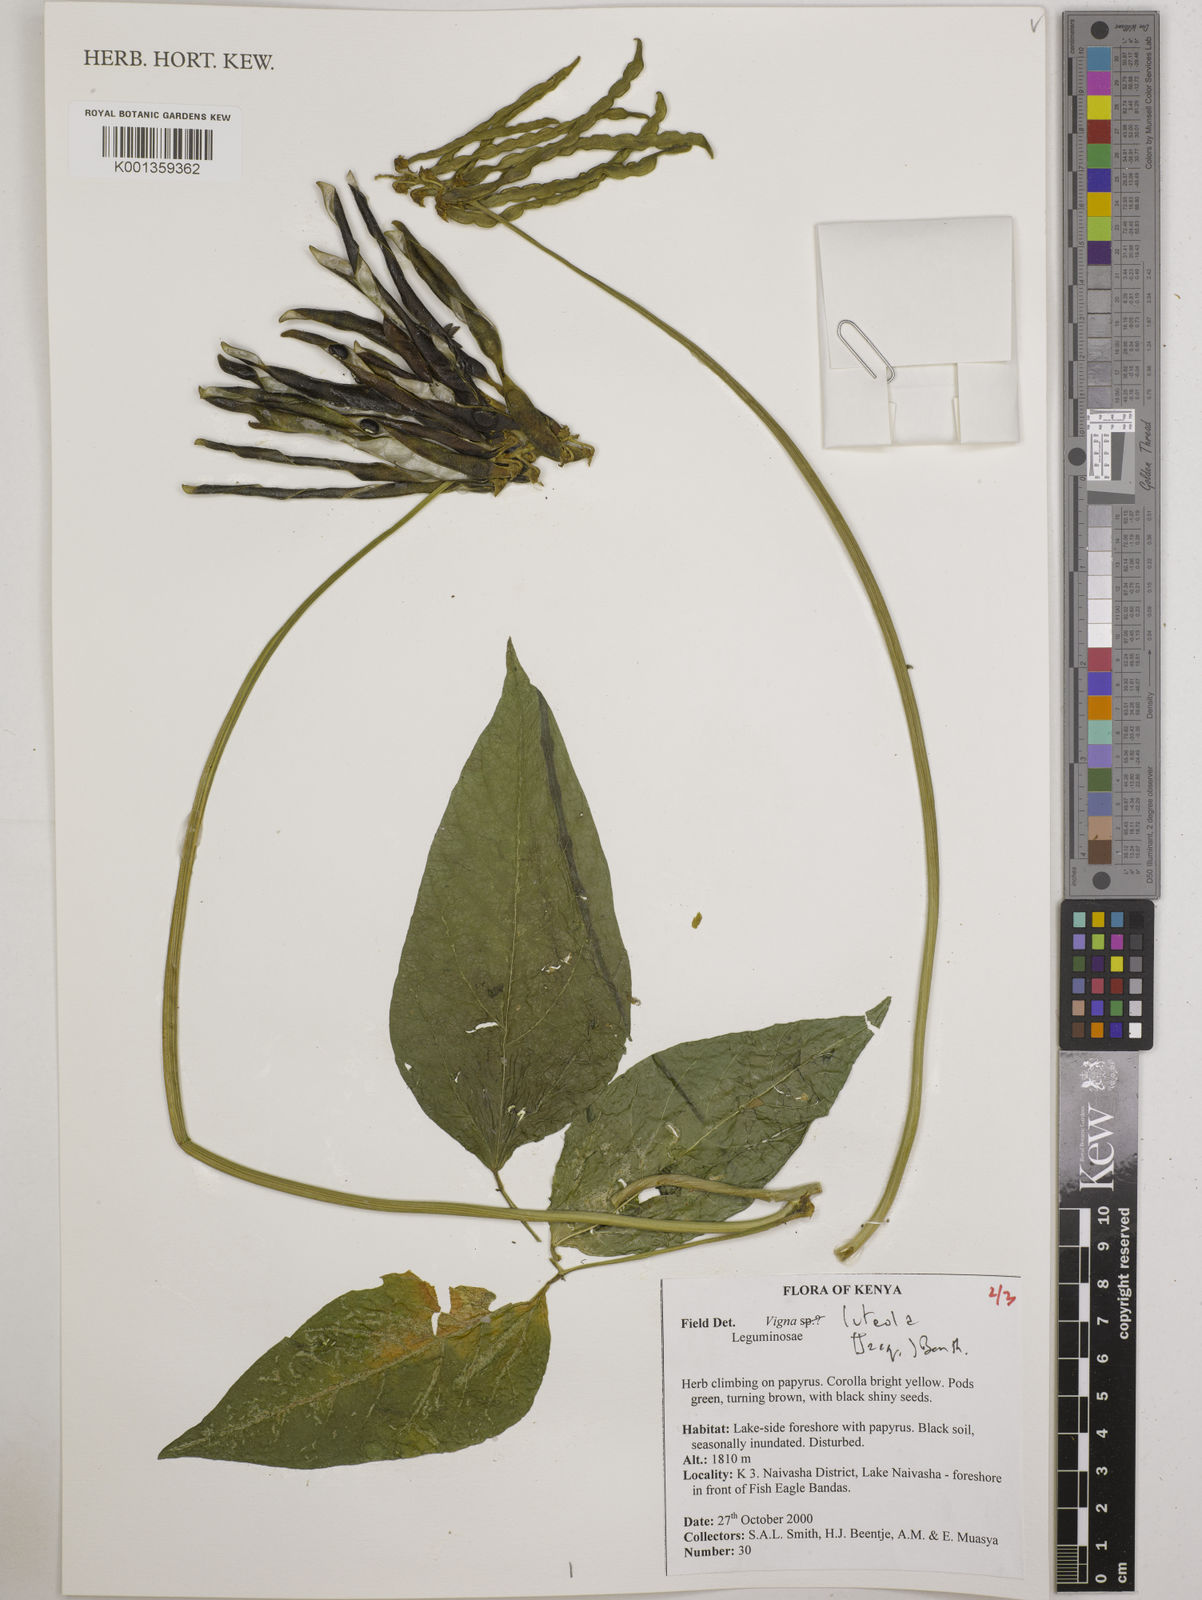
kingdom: Plantae
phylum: Tracheophyta
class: Magnoliopsida
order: Fabales
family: Fabaceae
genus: Vigna
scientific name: Vigna luteola
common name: Hairypod cowpea
